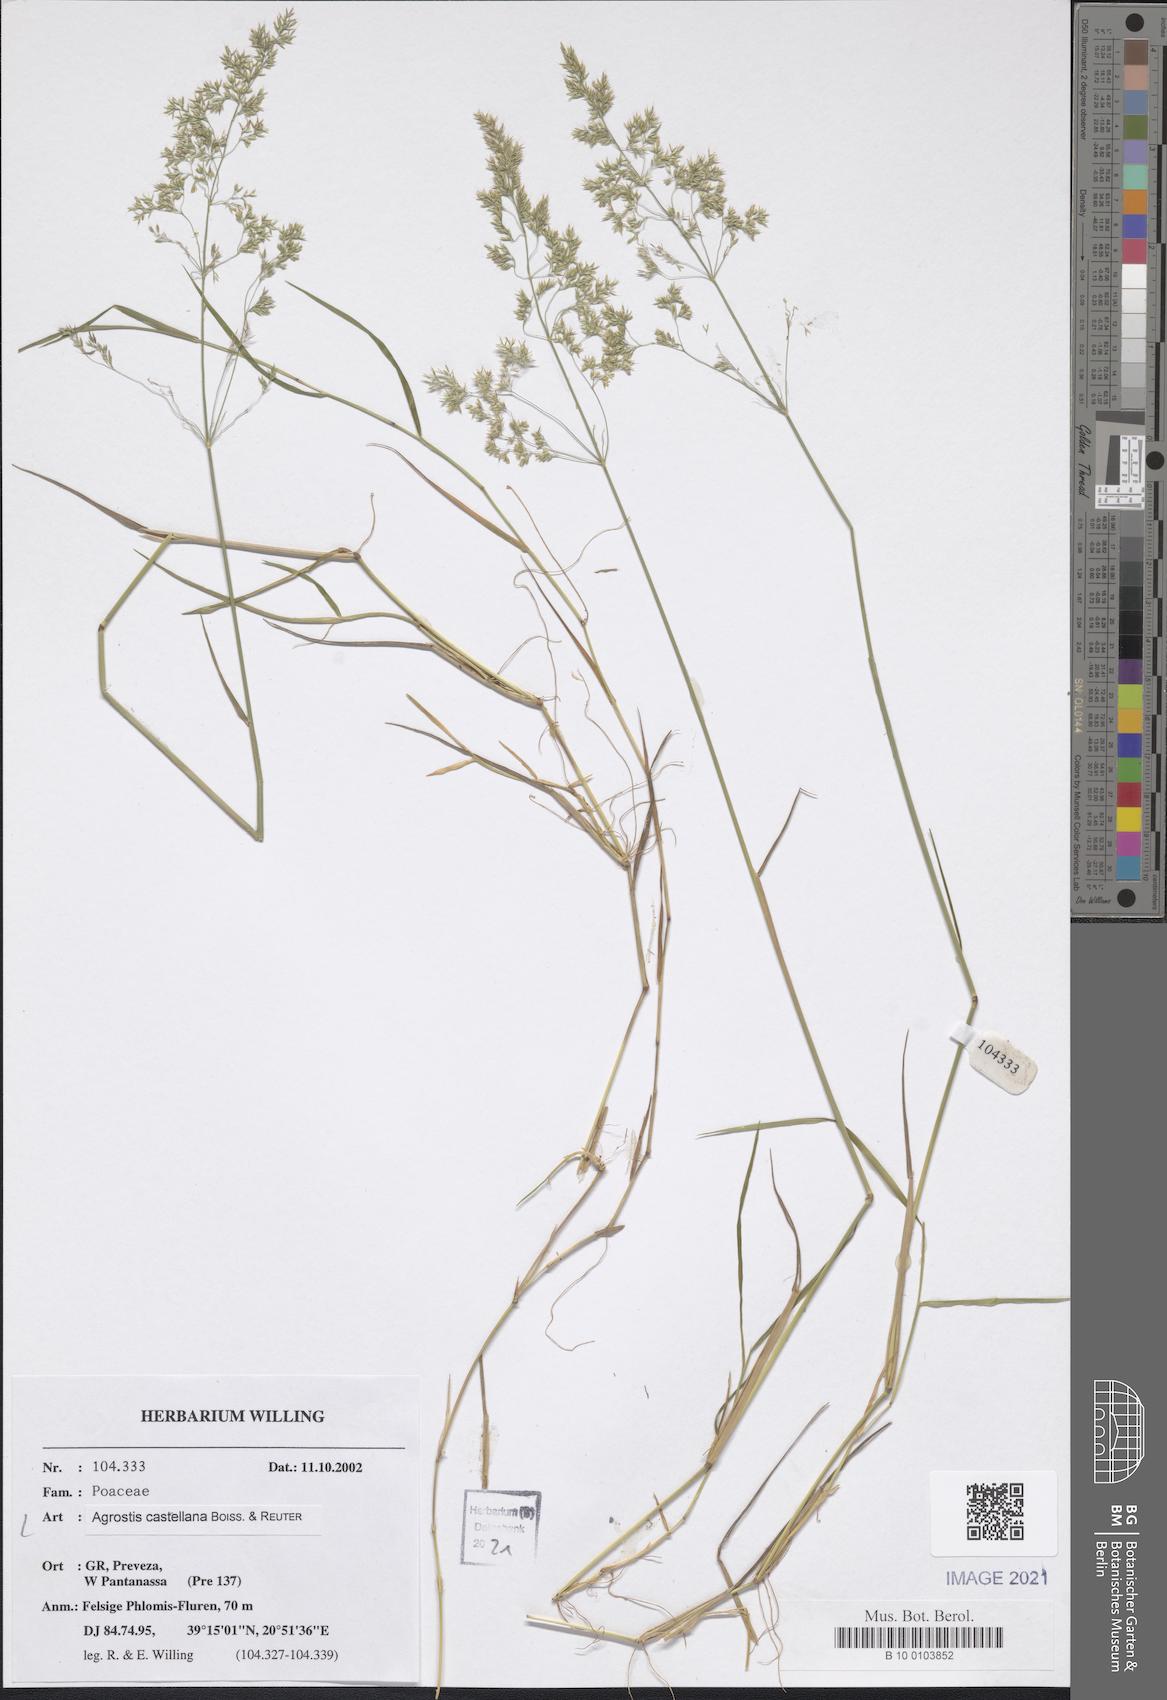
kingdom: Plantae
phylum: Tracheophyta
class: Liliopsida
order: Poales
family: Poaceae
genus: Agrostis
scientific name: Agrostis castellana
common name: Highland bent
